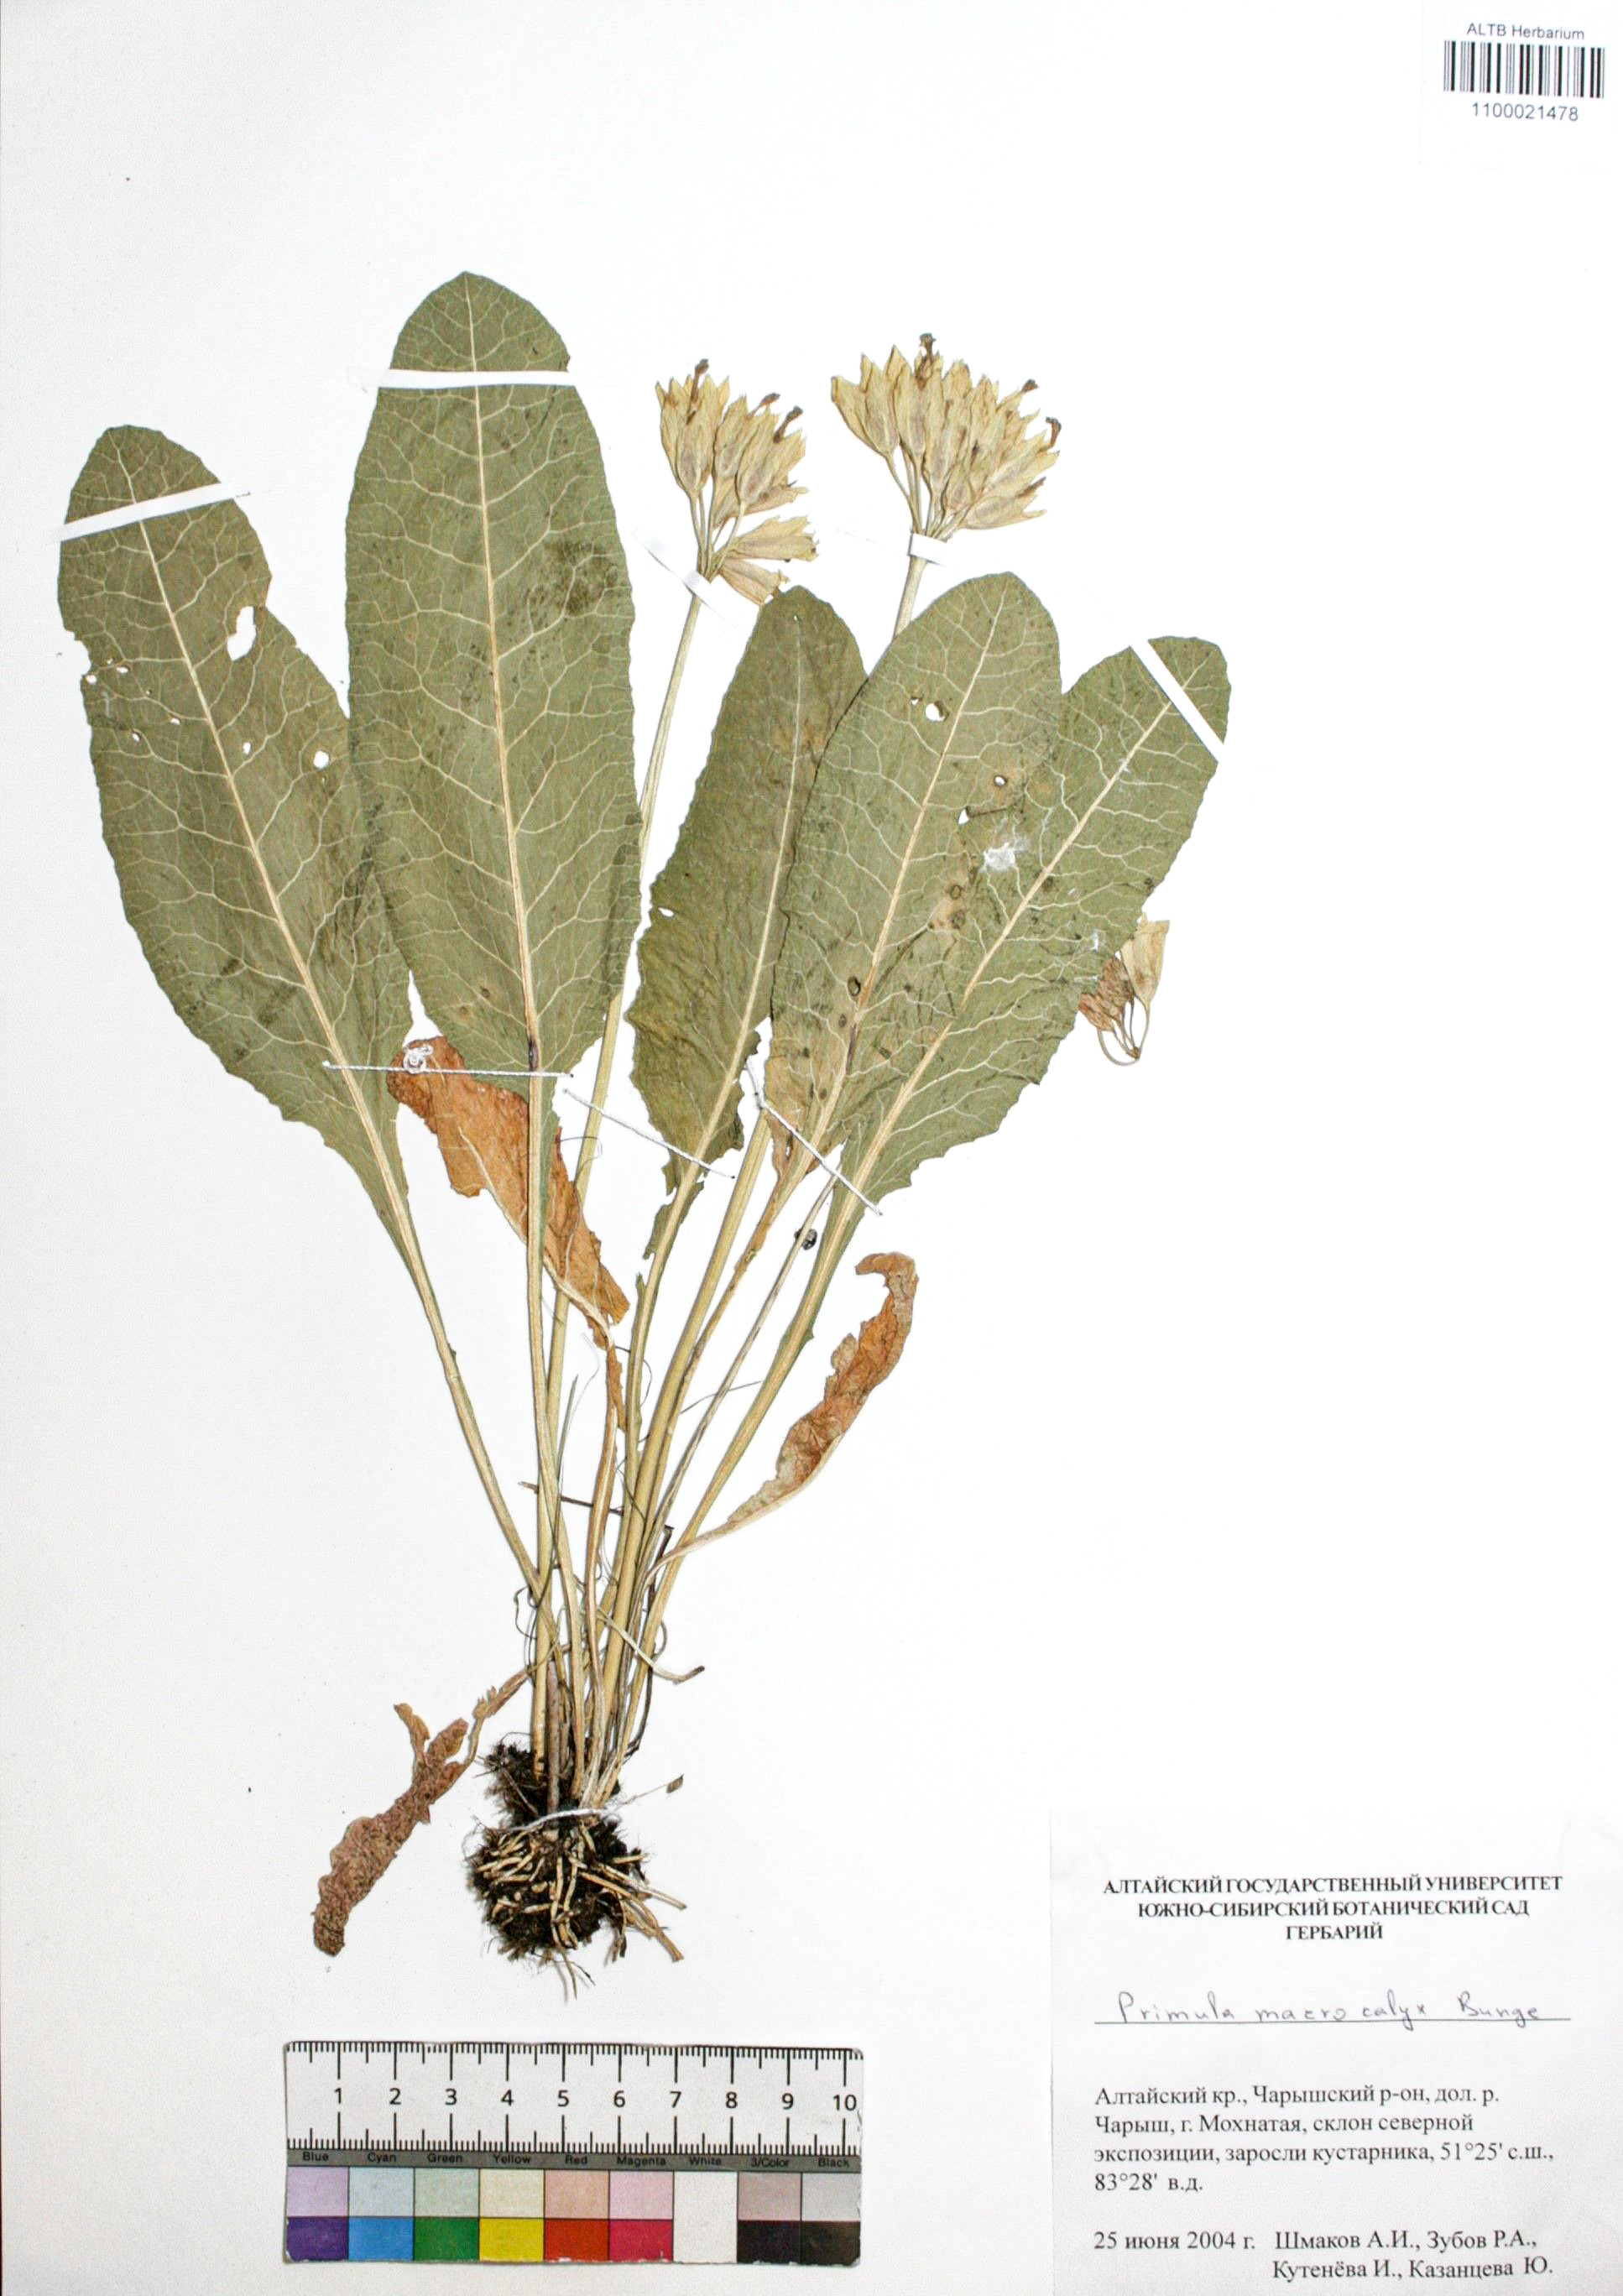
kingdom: Plantae
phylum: Tracheophyta
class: Magnoliopsida
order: Ericales
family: Primulaceae
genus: Primula
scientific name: Primula veris
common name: Cowslip
